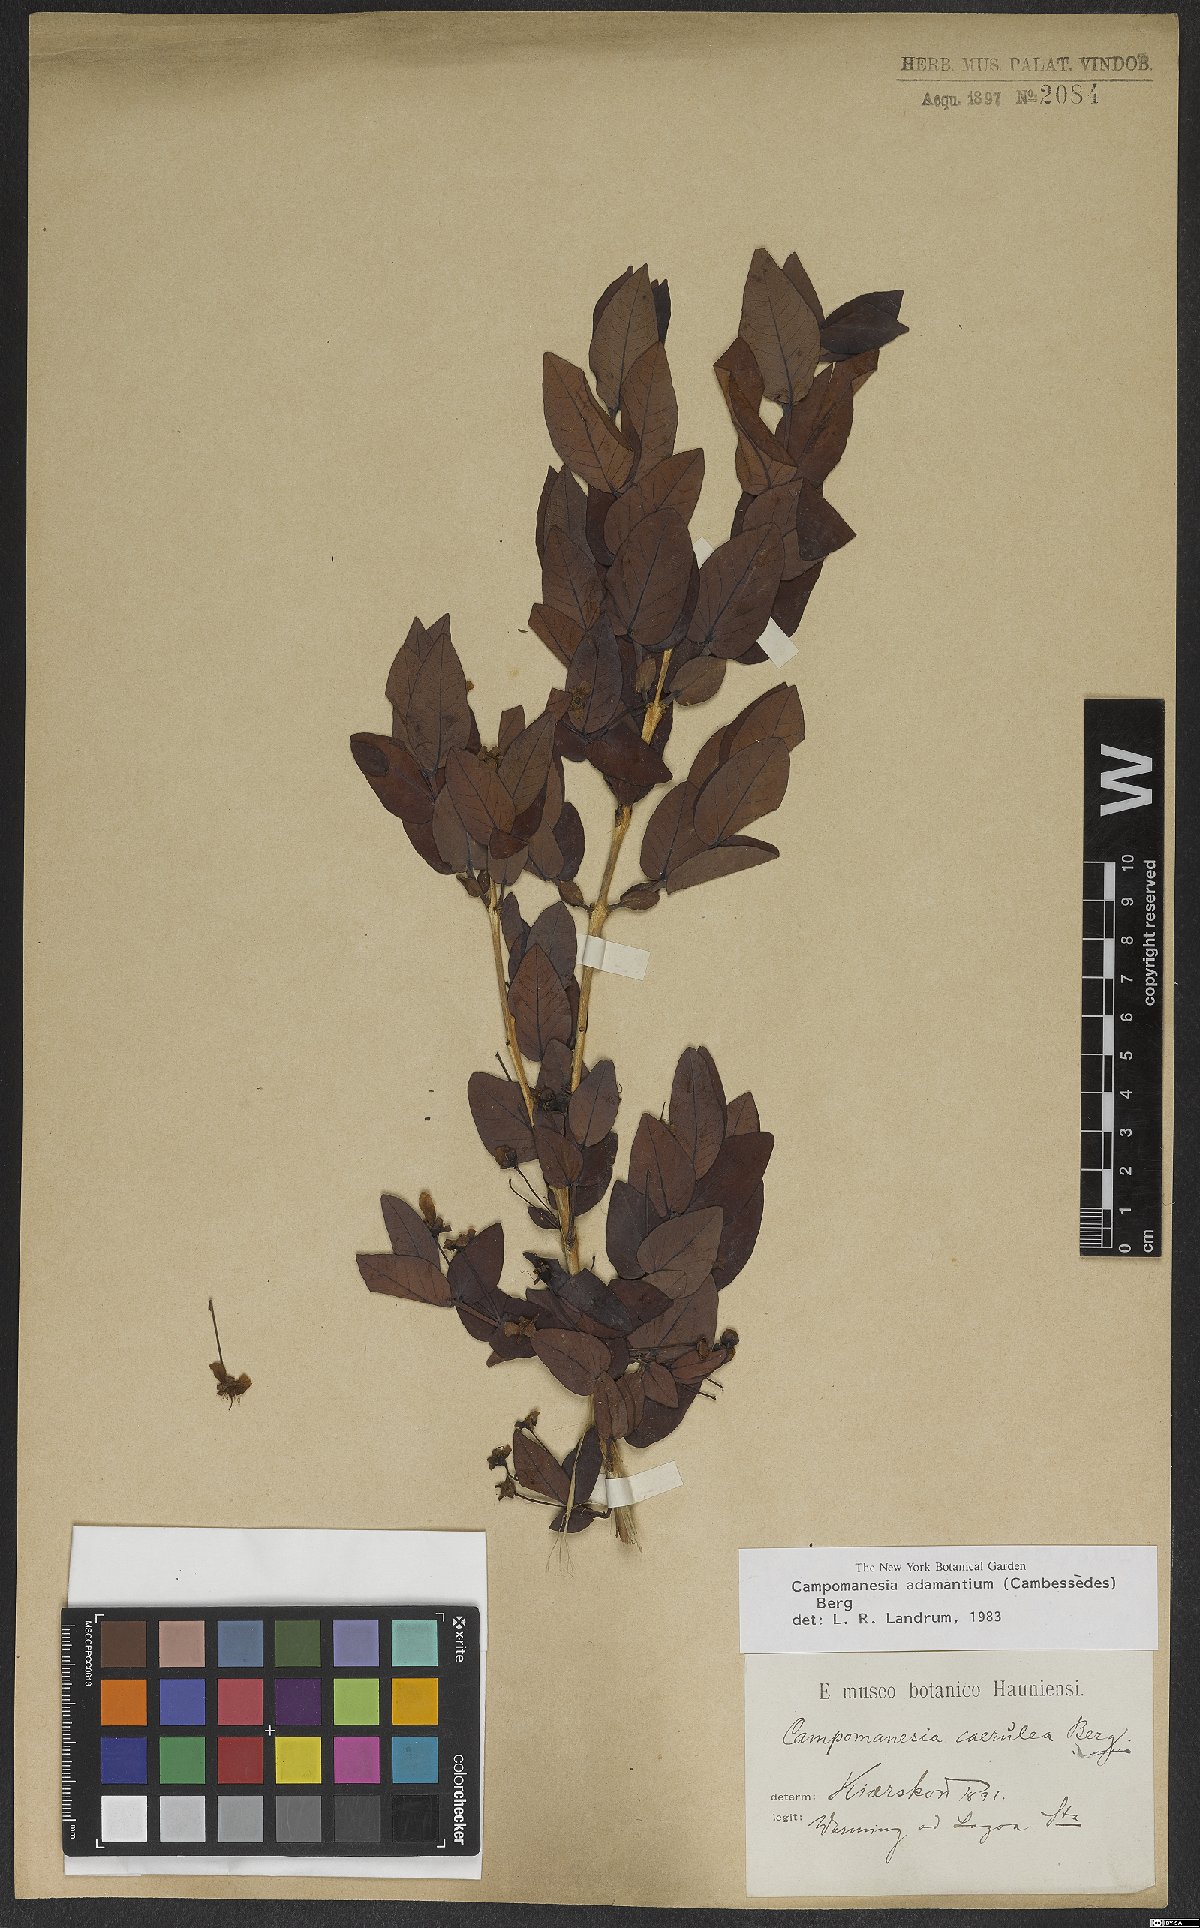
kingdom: Plantae
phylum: Tracheophyta
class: Magnoliopsida
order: Myrtales
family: Myrtaceae
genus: Campomanesia
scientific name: Campomanesia adamantium
